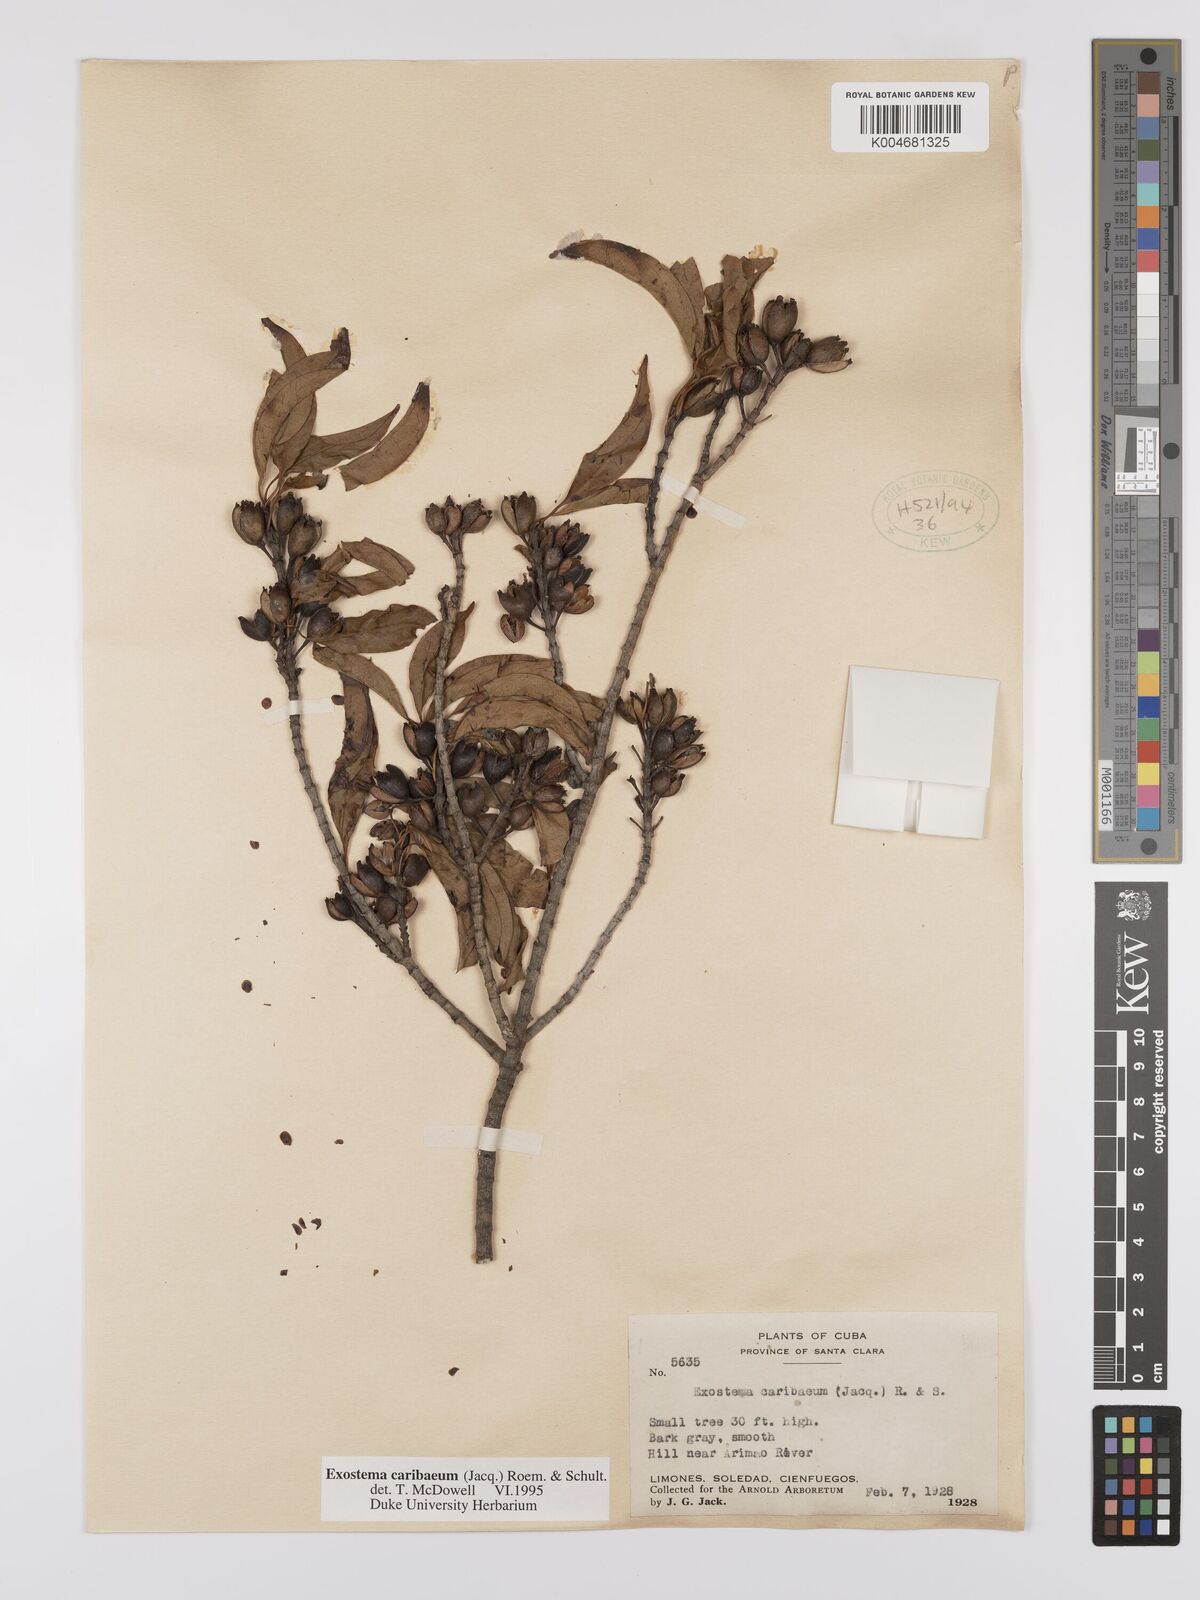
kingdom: Plantae
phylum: Tracheophyta
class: Magnoliopsida
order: Gentianales
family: Rubiaceae
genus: Exostema
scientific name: Exostema caribaeum
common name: Princewood
